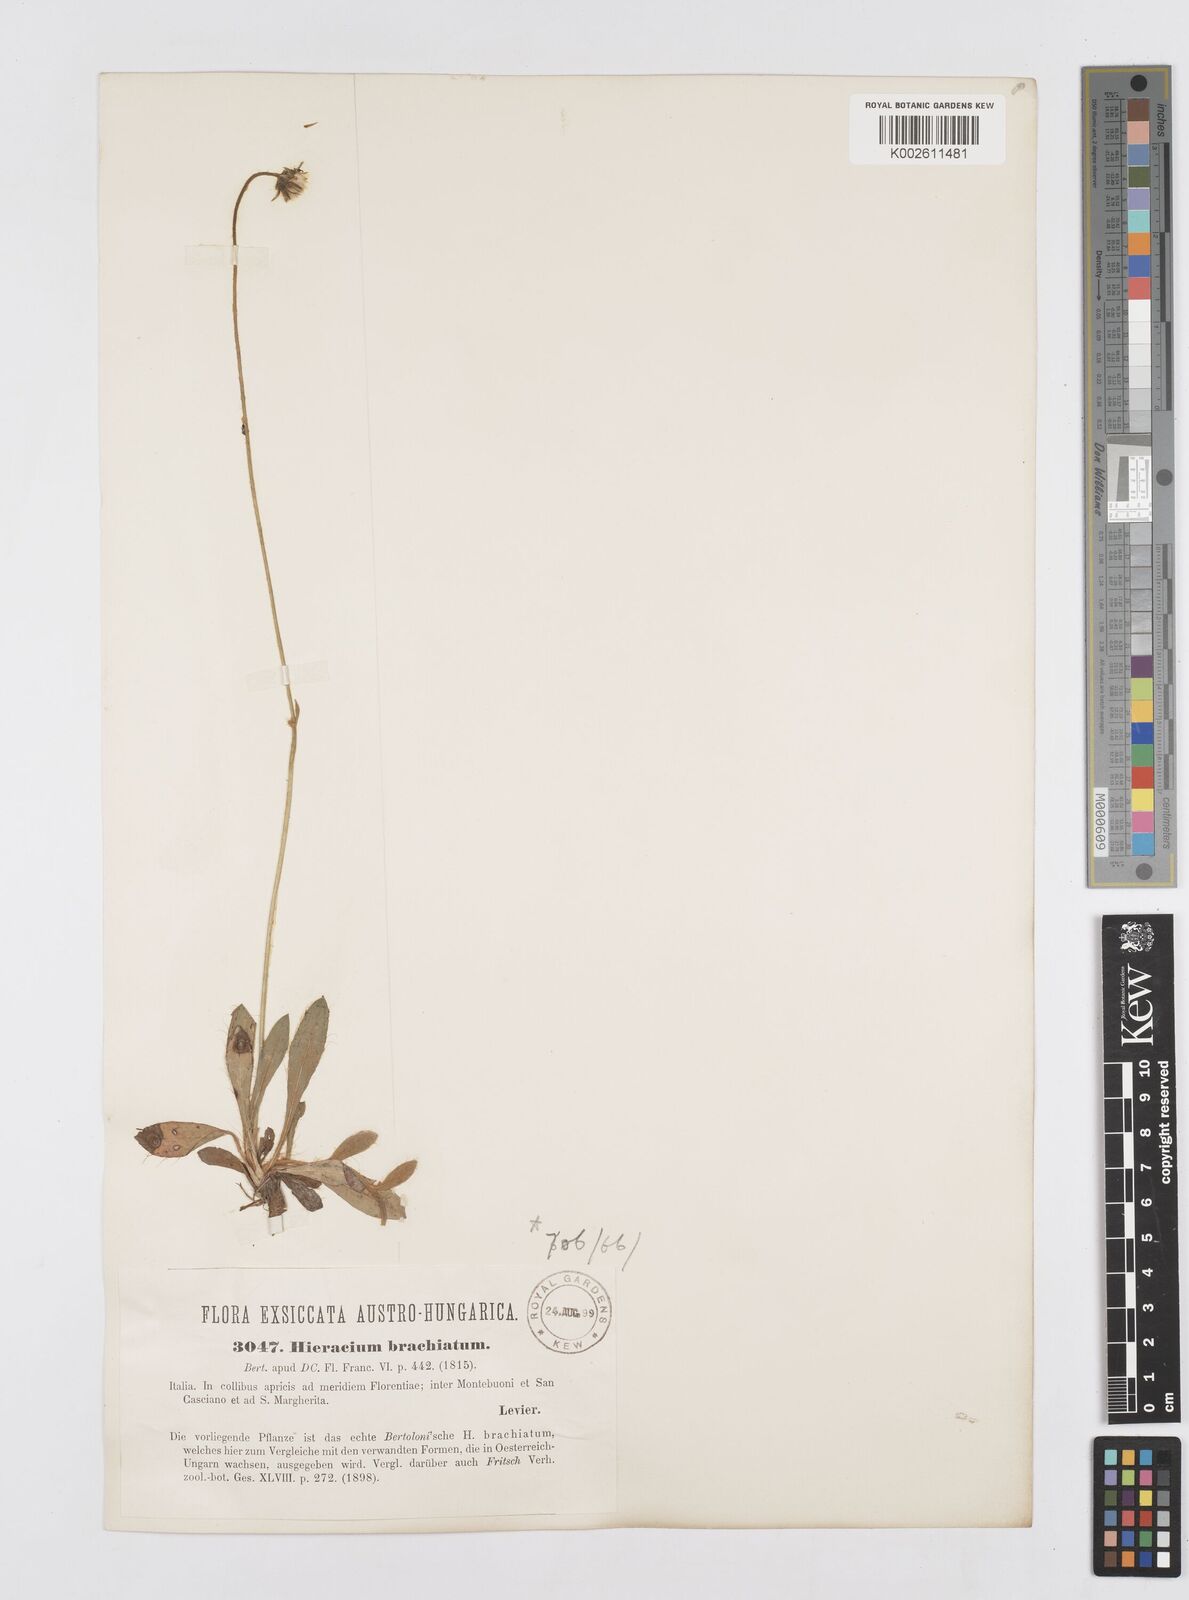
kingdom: Plantae
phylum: Tracheophyta
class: Magnoliopsida
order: Asterales
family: Asteraceae
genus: Pilosella
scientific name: Pilosella acutifolia
